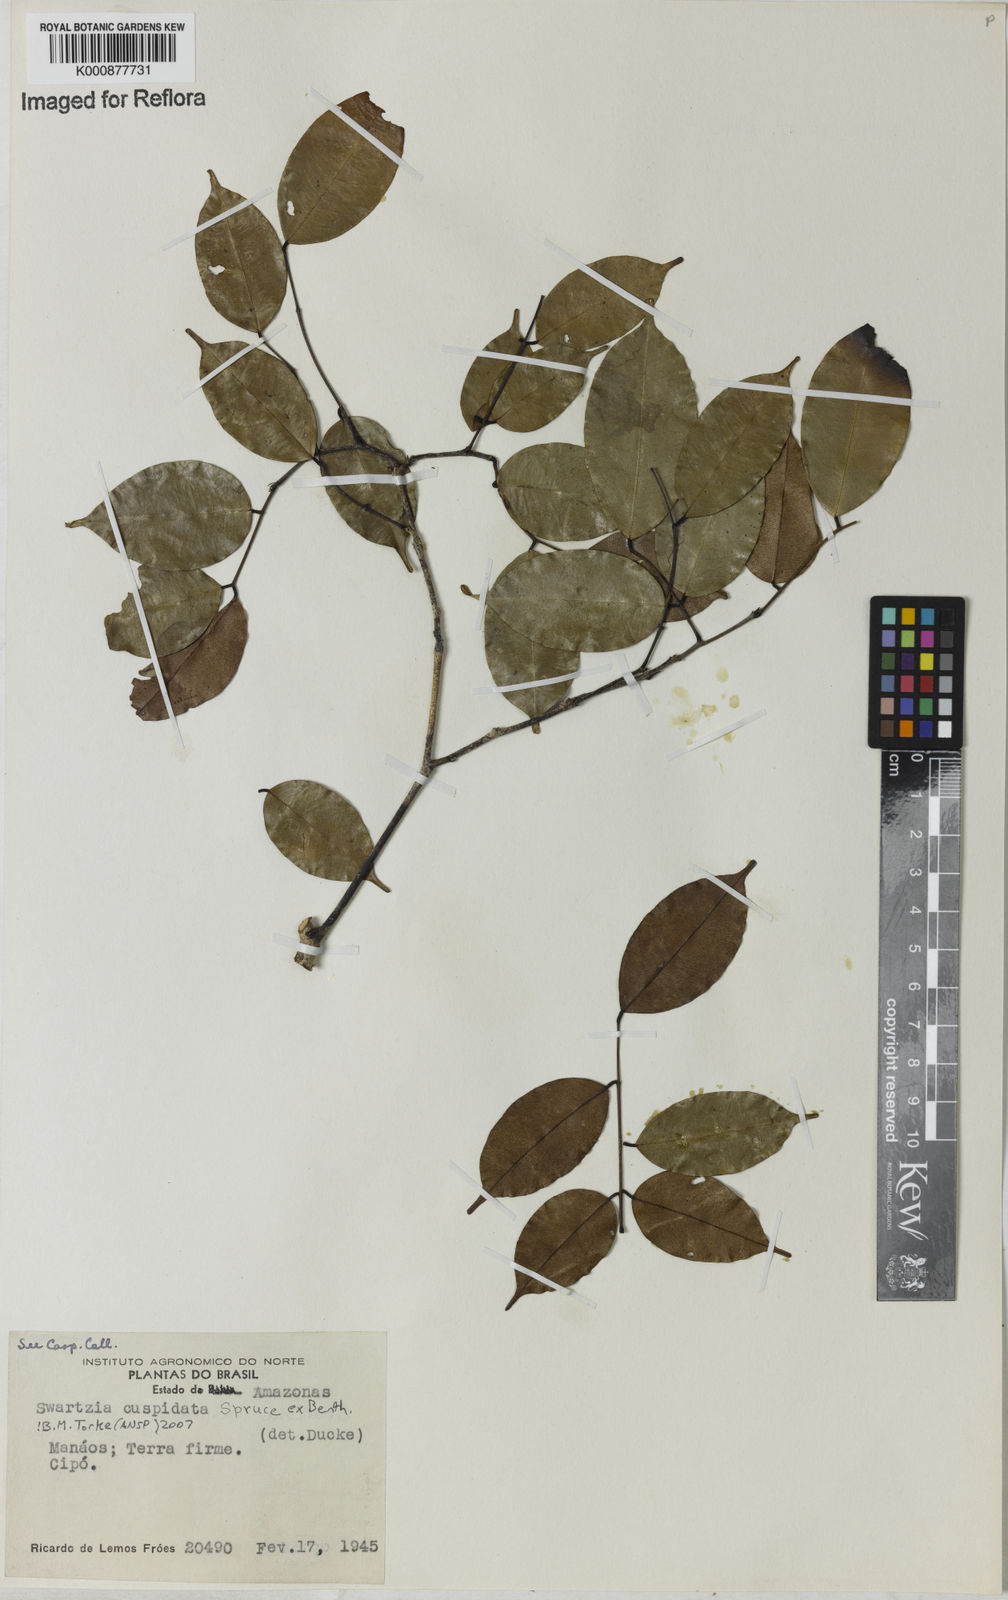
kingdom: Plantae
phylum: Tracheophyta
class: Magnoliopsida
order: Fabales
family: Fabaceae
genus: Swartzia
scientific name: Swartzia
